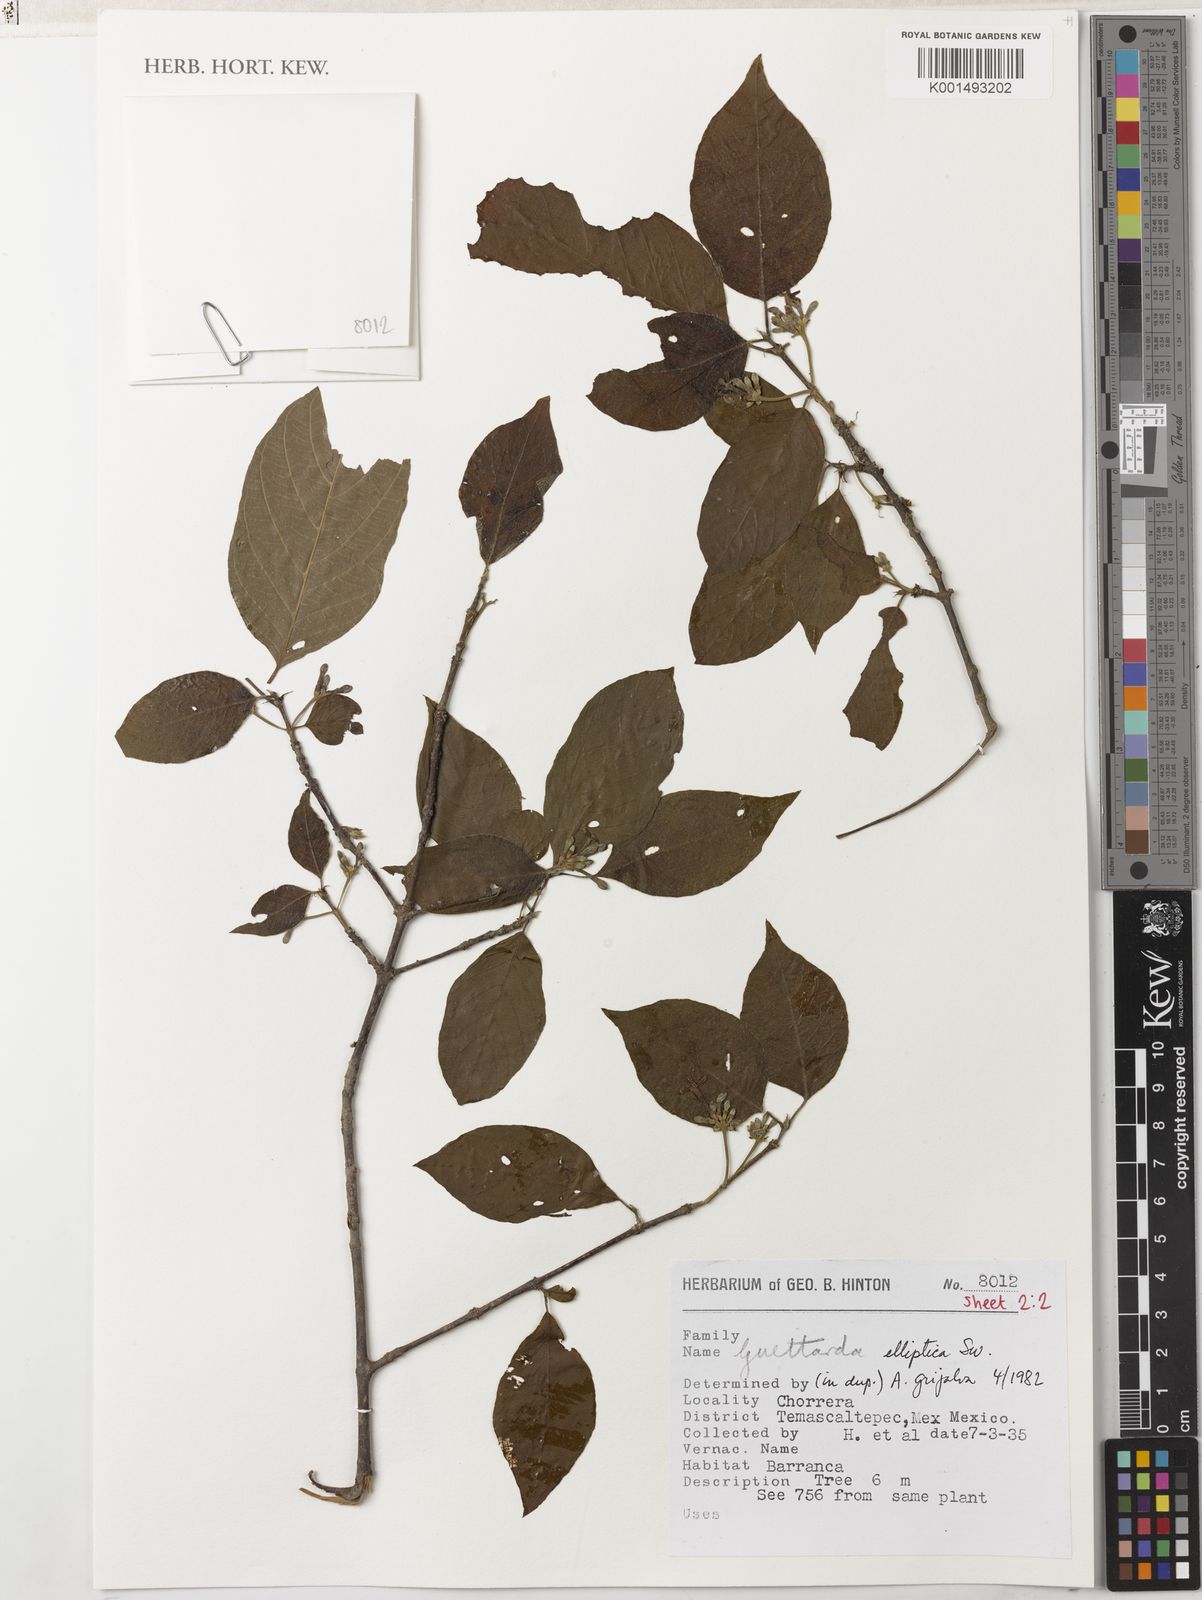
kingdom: Plantae
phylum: Tracheophyta
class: Magnoliopsida
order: Gentianales
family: Rubiaceae
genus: Guettarda
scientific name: Guettarda elliptica
